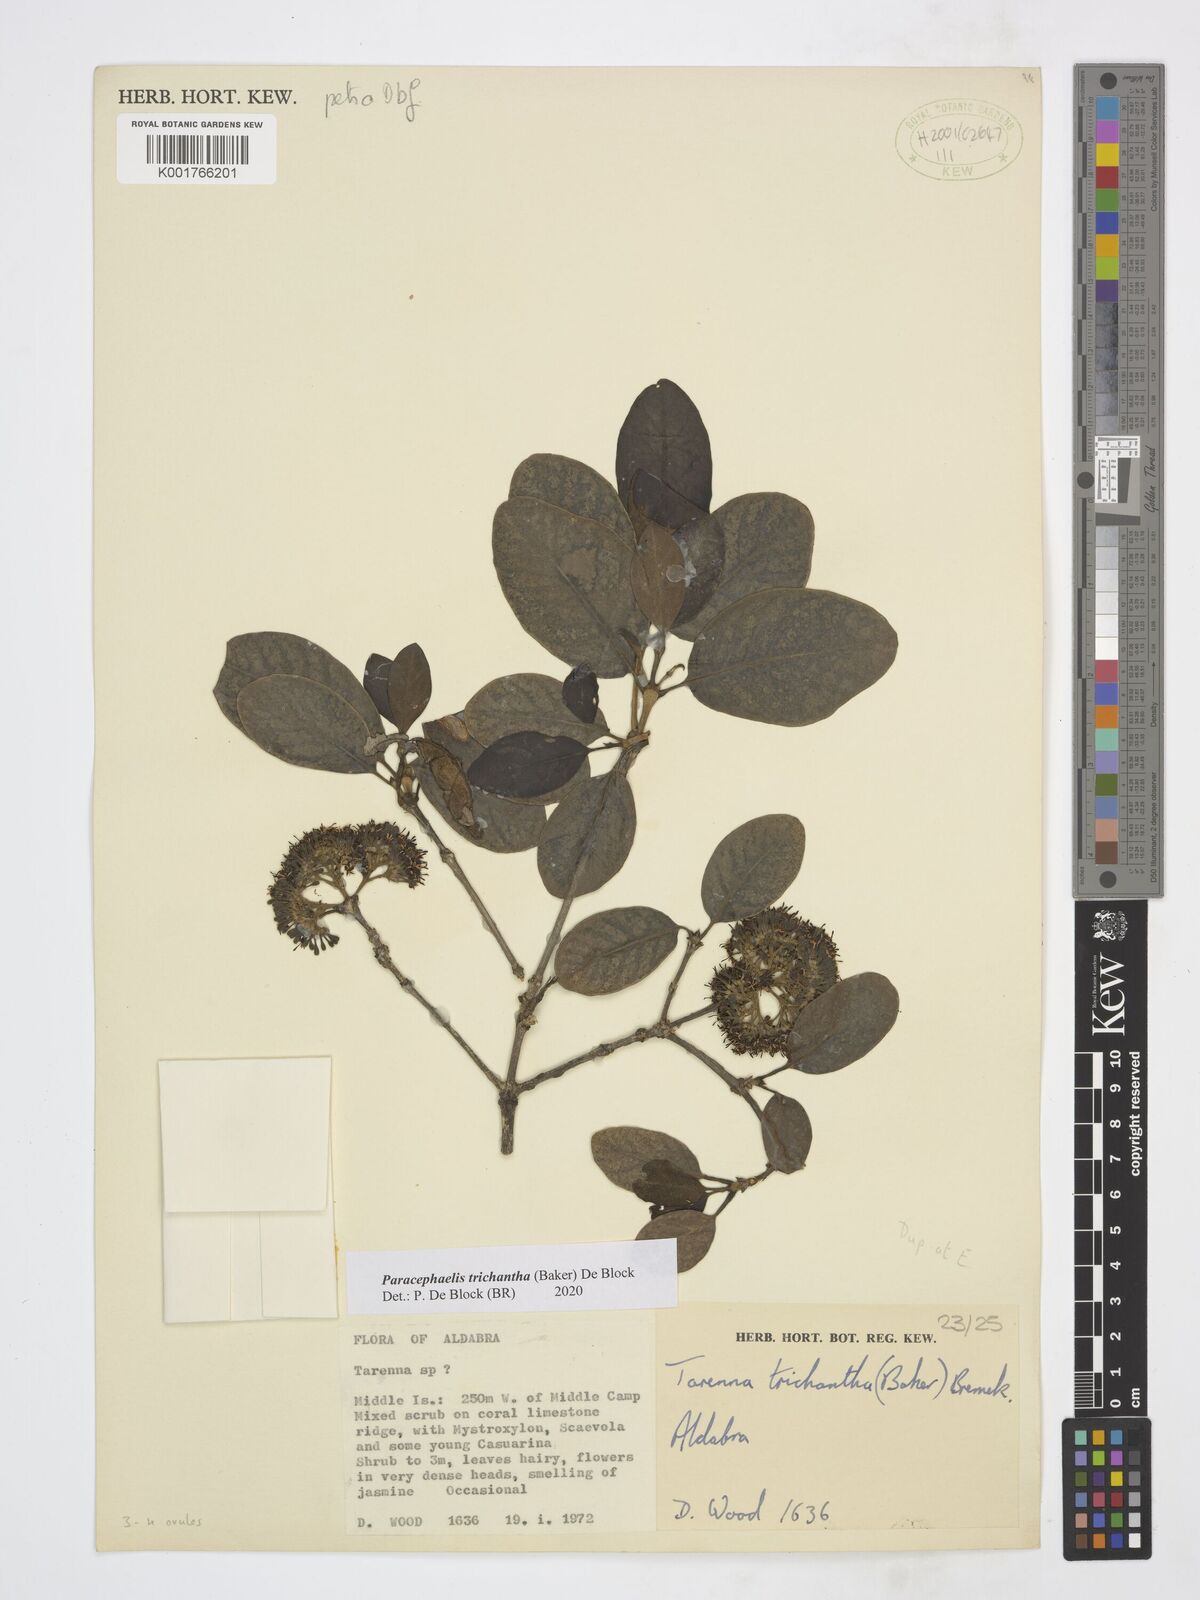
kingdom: Plantae
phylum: Tracheophyta
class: Magnoliopsida
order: Gentianales
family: Rubiaceae
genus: Paracephaelis
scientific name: Paracephaelis trichantha
